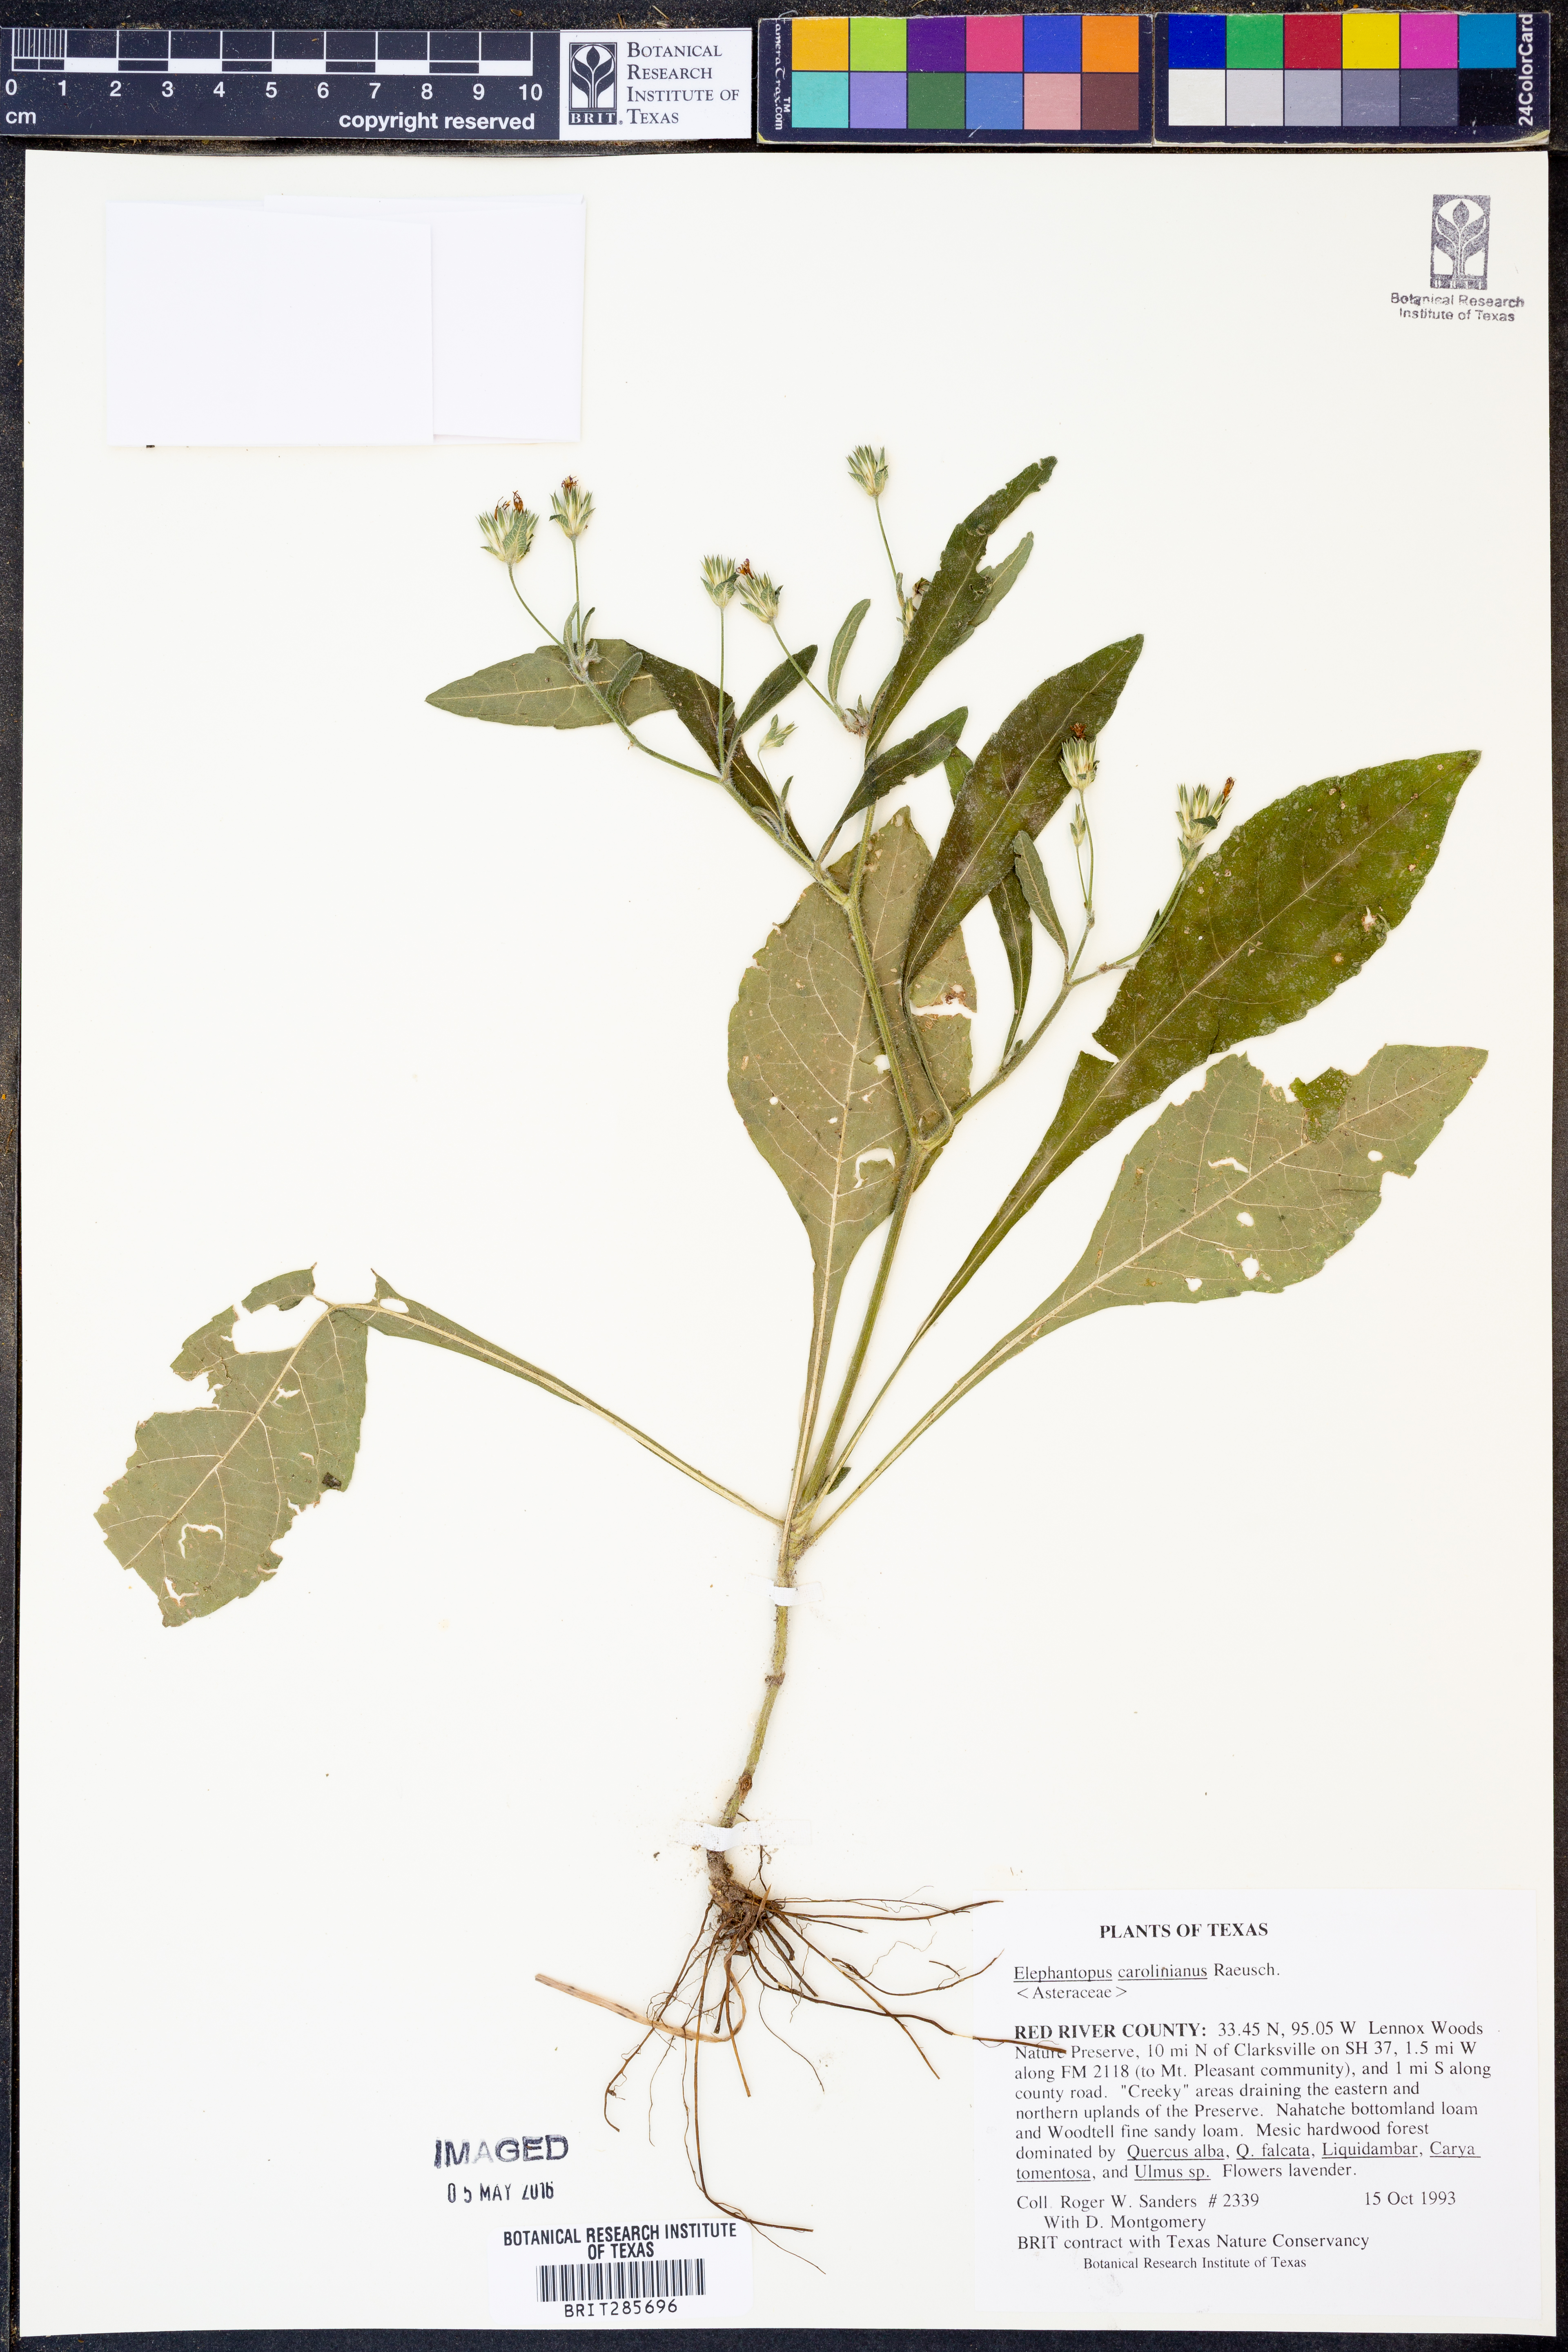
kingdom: Plantae
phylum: Tracheophyta
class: Magnoliopsida
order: Asterales
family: Asteraceae
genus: Elephantopus
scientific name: Elephantopus carolinianus
